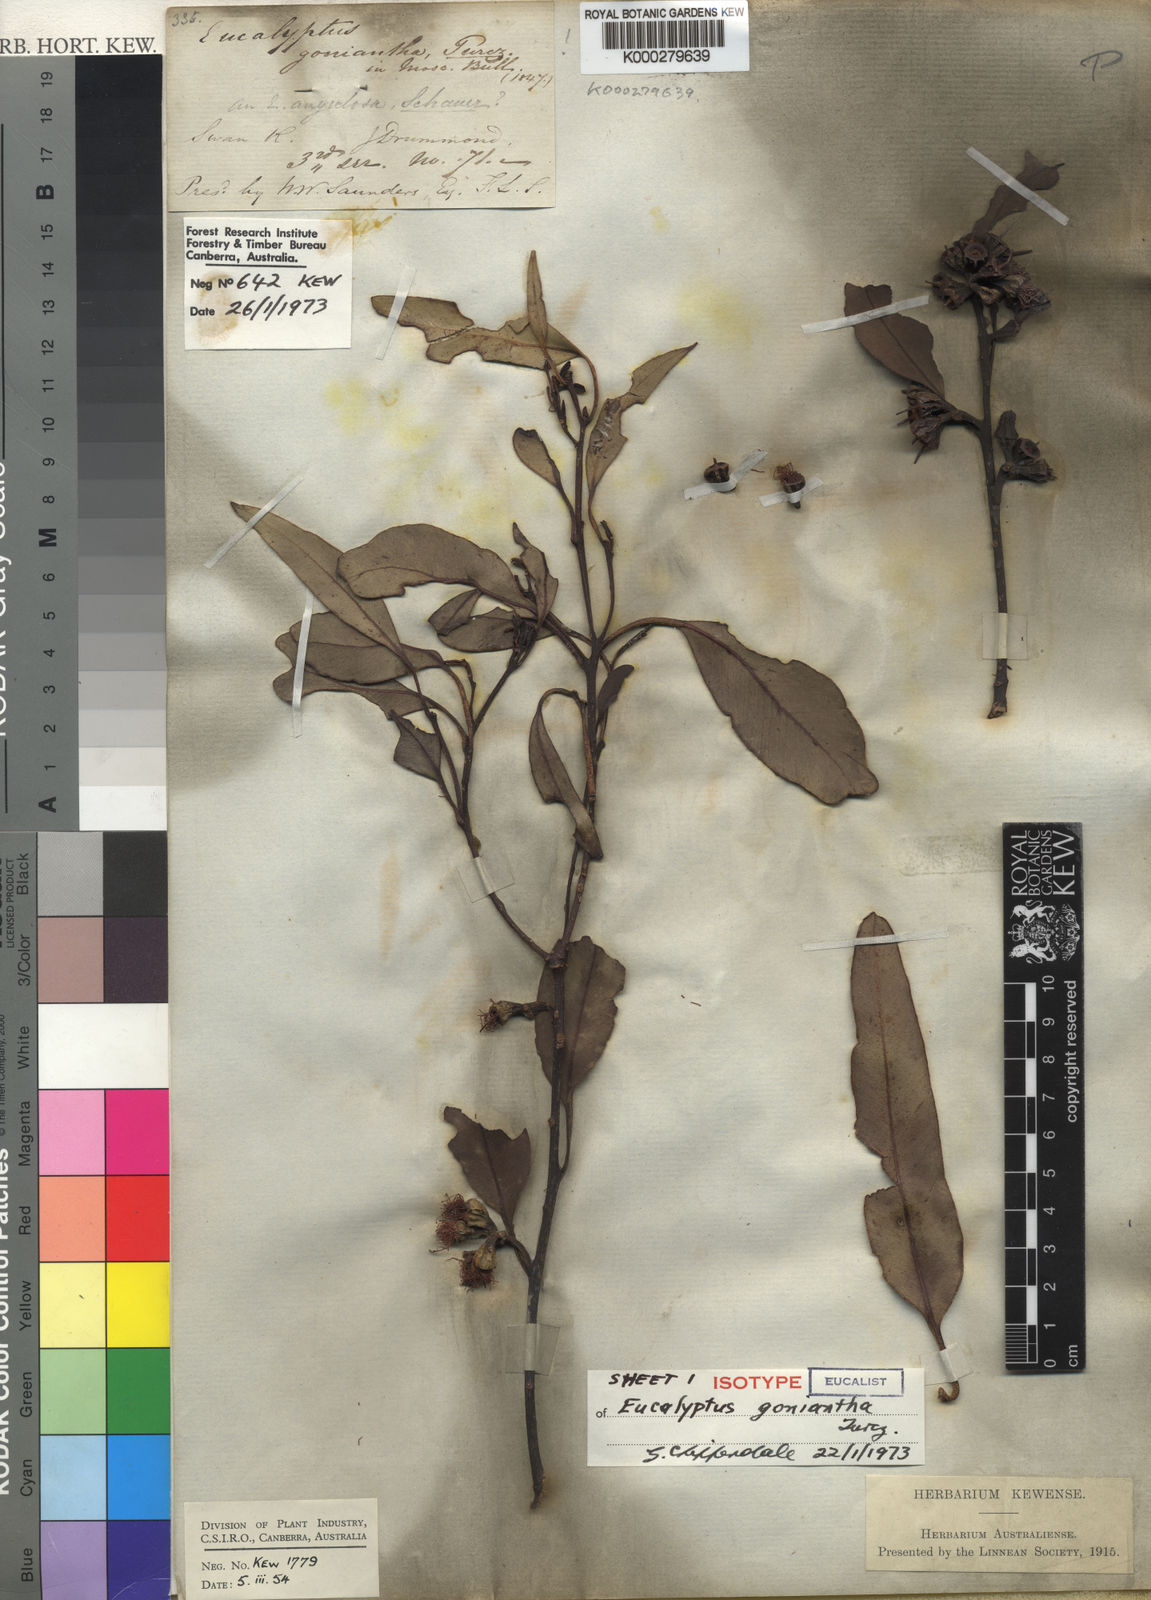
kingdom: Plantae
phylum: Tracheophyta
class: Magnoliopsida
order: Myrtales
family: Myrtaceae
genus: Eucalyptus
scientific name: Eucalyptus goniantha
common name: Kessell's mallee
